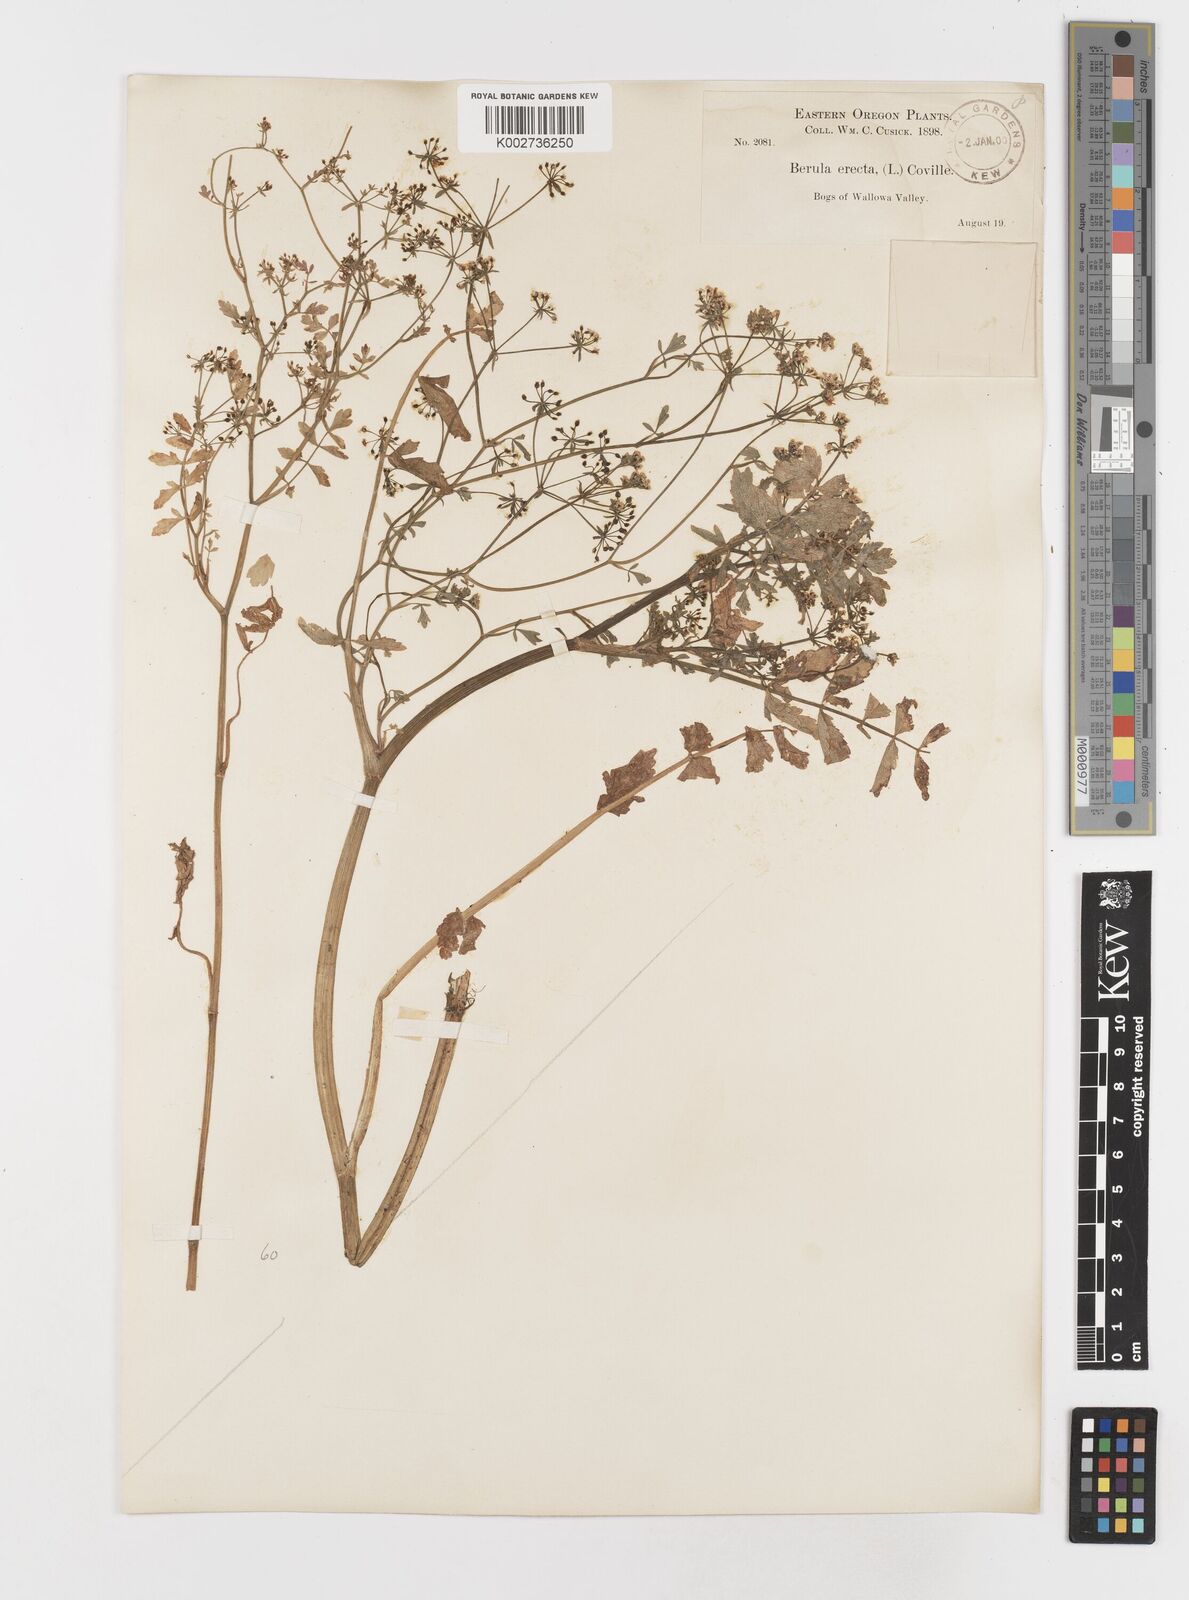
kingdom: Plantae
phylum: Tracheophyta
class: Magnoliopsida
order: Apiales
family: Apiaceae
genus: Berula
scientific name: Berula erecta
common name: Lesser water-parsnip
